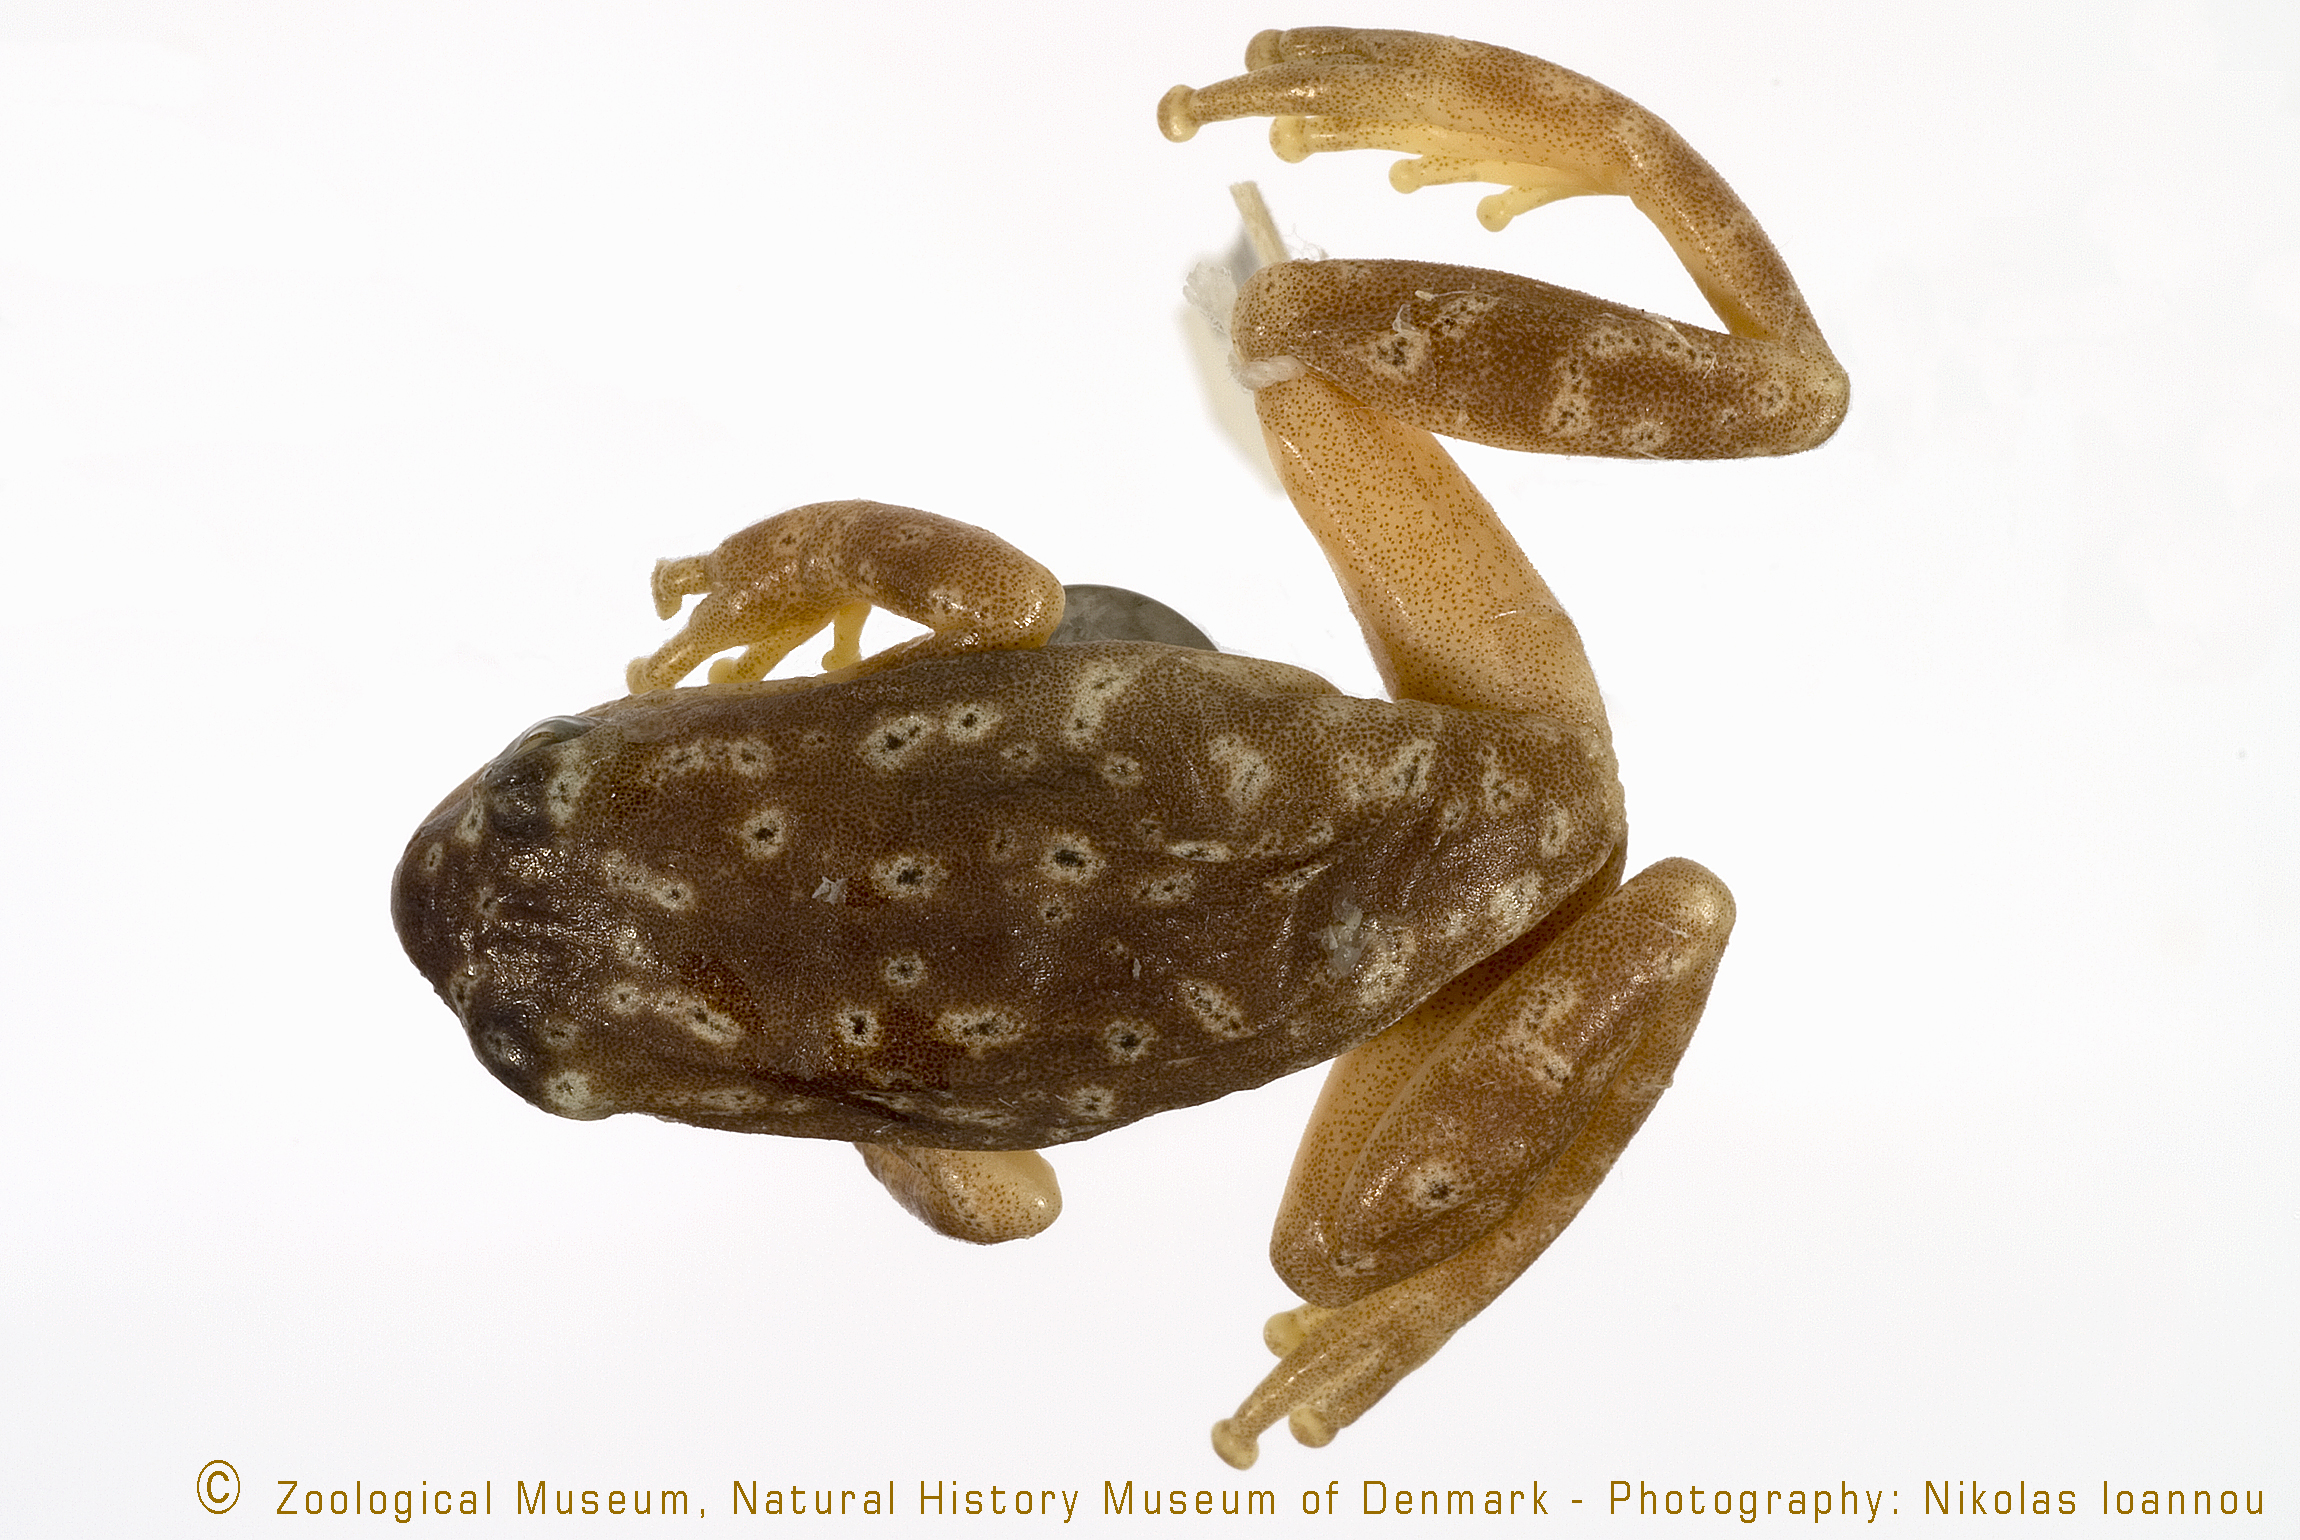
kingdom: Animalia
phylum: Chordata
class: Amphibia
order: Anura
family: Hyperoliidae
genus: Hyperolius
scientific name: Hyperolius viridiflavus
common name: Common reed frog
